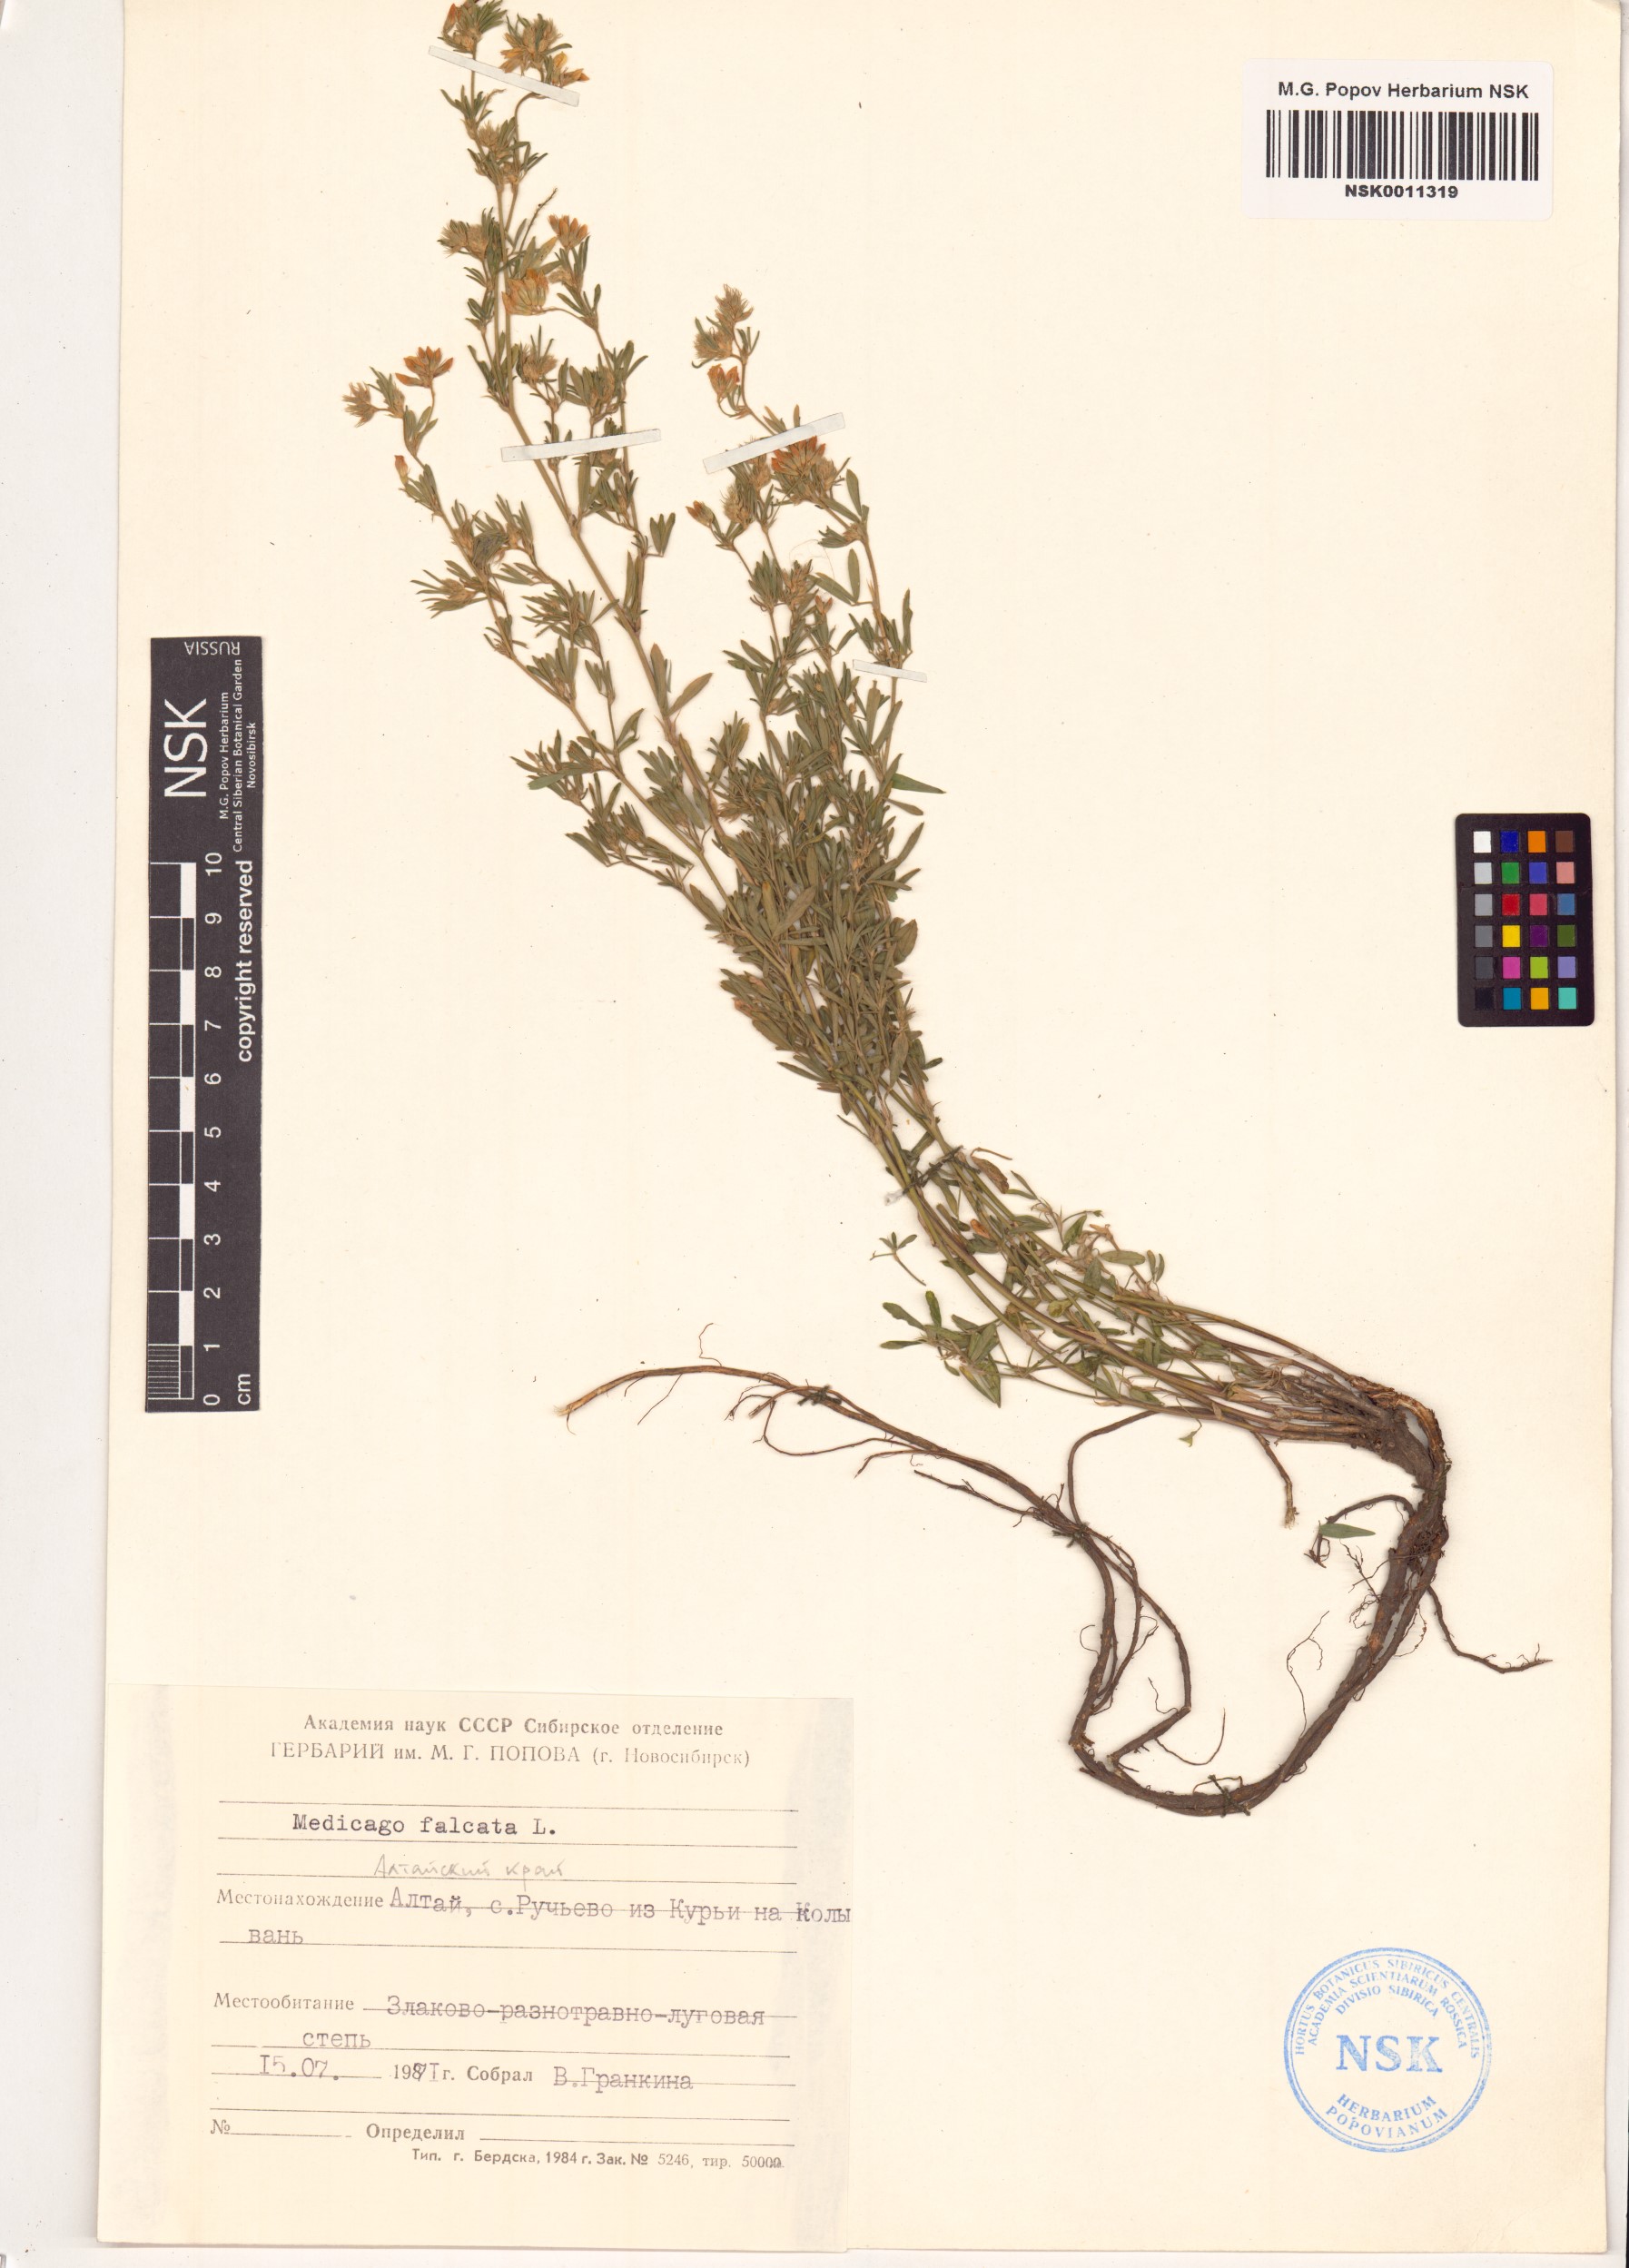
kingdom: Plantae
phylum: Tracheophyta
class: Magnoliopsida
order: Fabales
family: Fabaceae
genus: Medicago
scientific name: Medicago falcata
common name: Sickle medick
